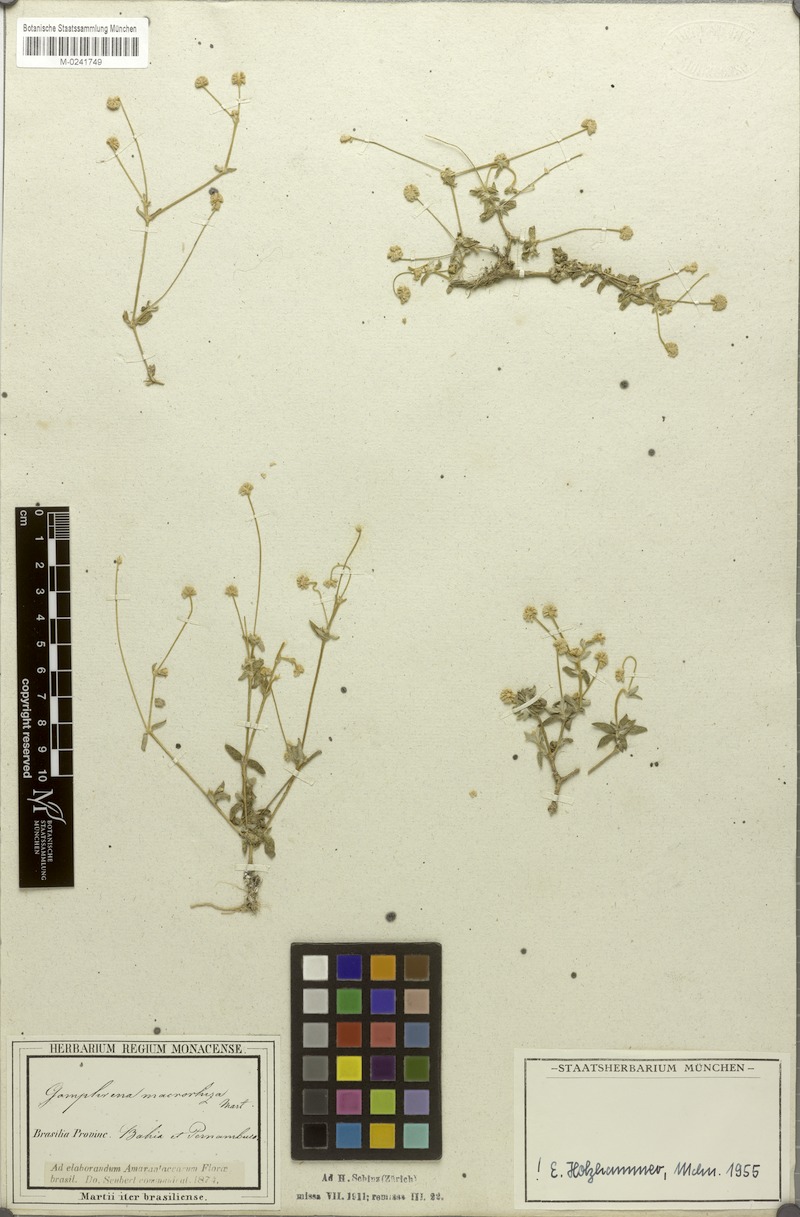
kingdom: Plantae
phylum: Tracheophyta
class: Magnoliopsida
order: Caryophyllales
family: Amaranthaceae
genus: Gomphrena
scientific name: Gomphrena macrorhiza
